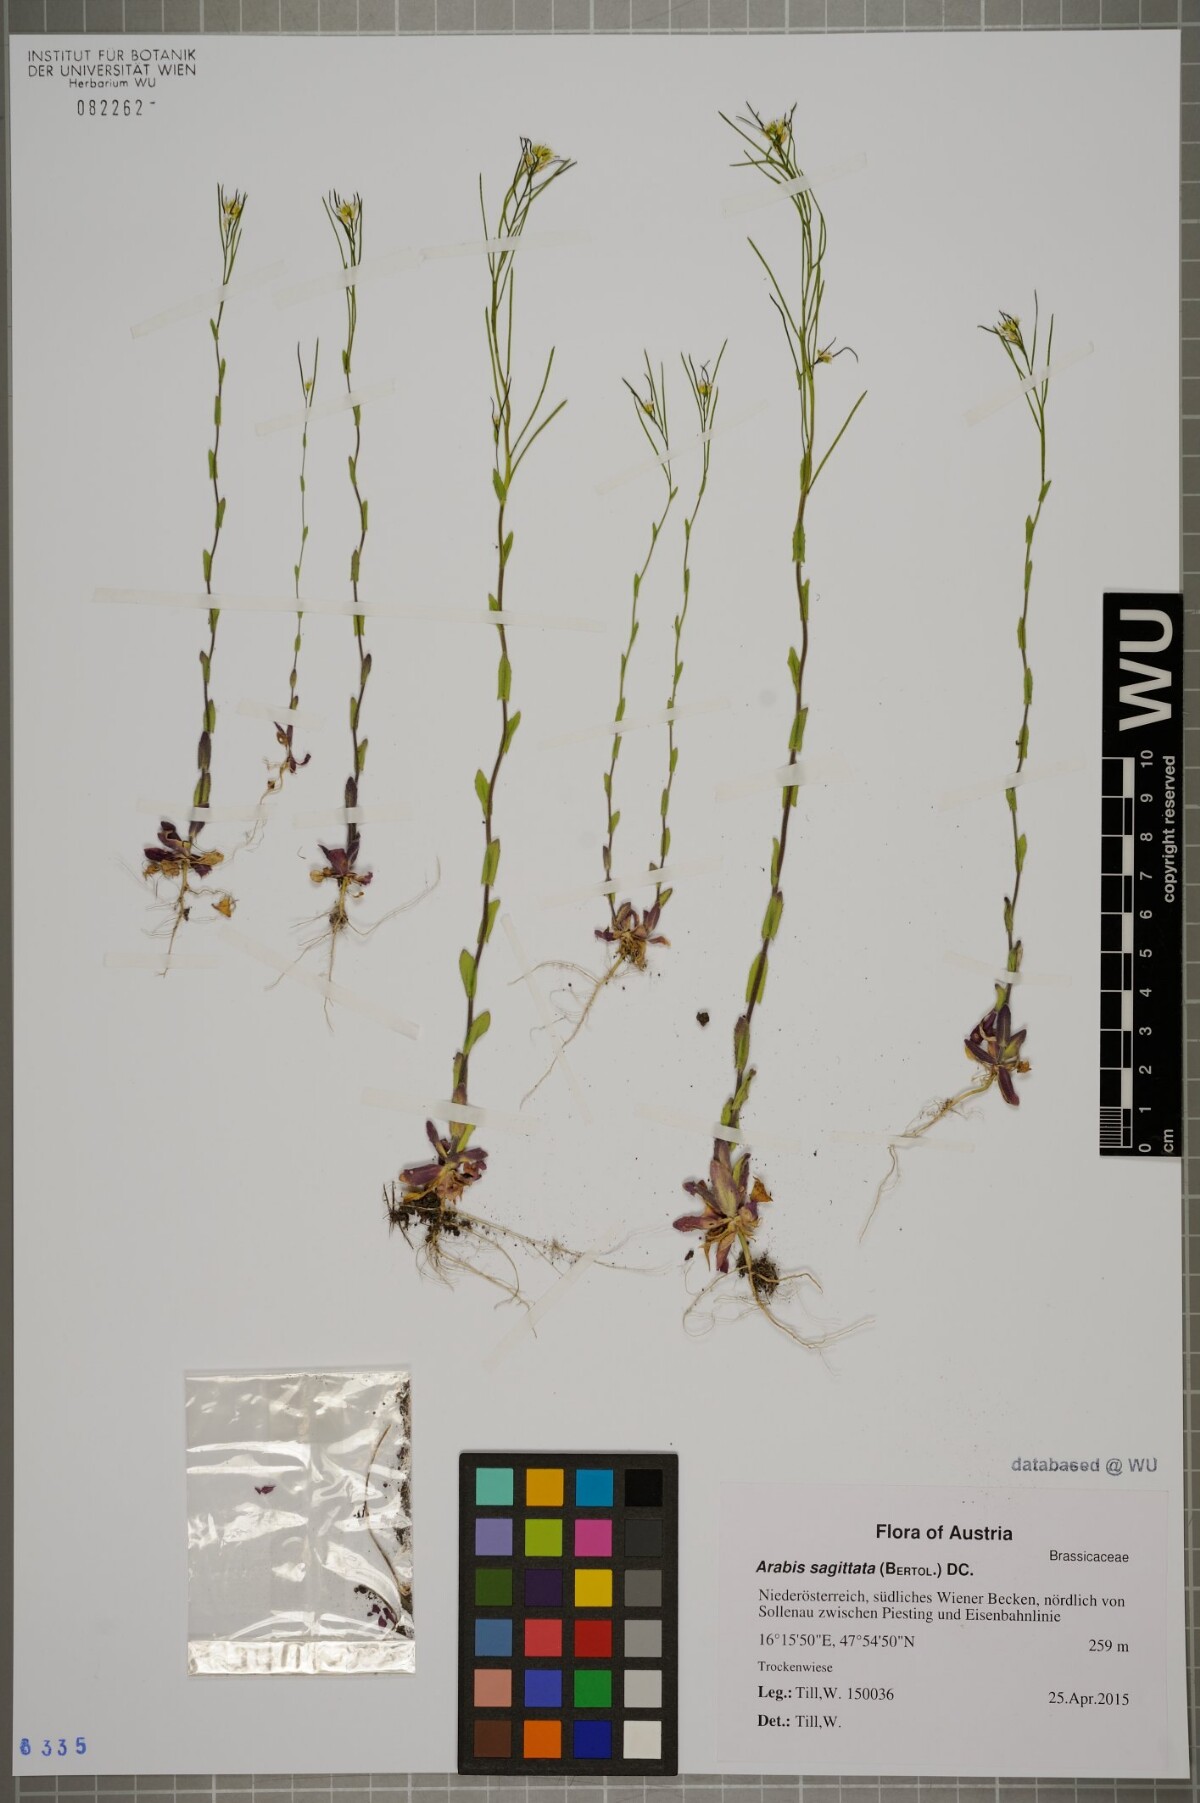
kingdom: Plantae
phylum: Tracheophyta
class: Magnoliopsida
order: Brassicales
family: Brassicaceae
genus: Arabis
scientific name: Arabis sagittata
